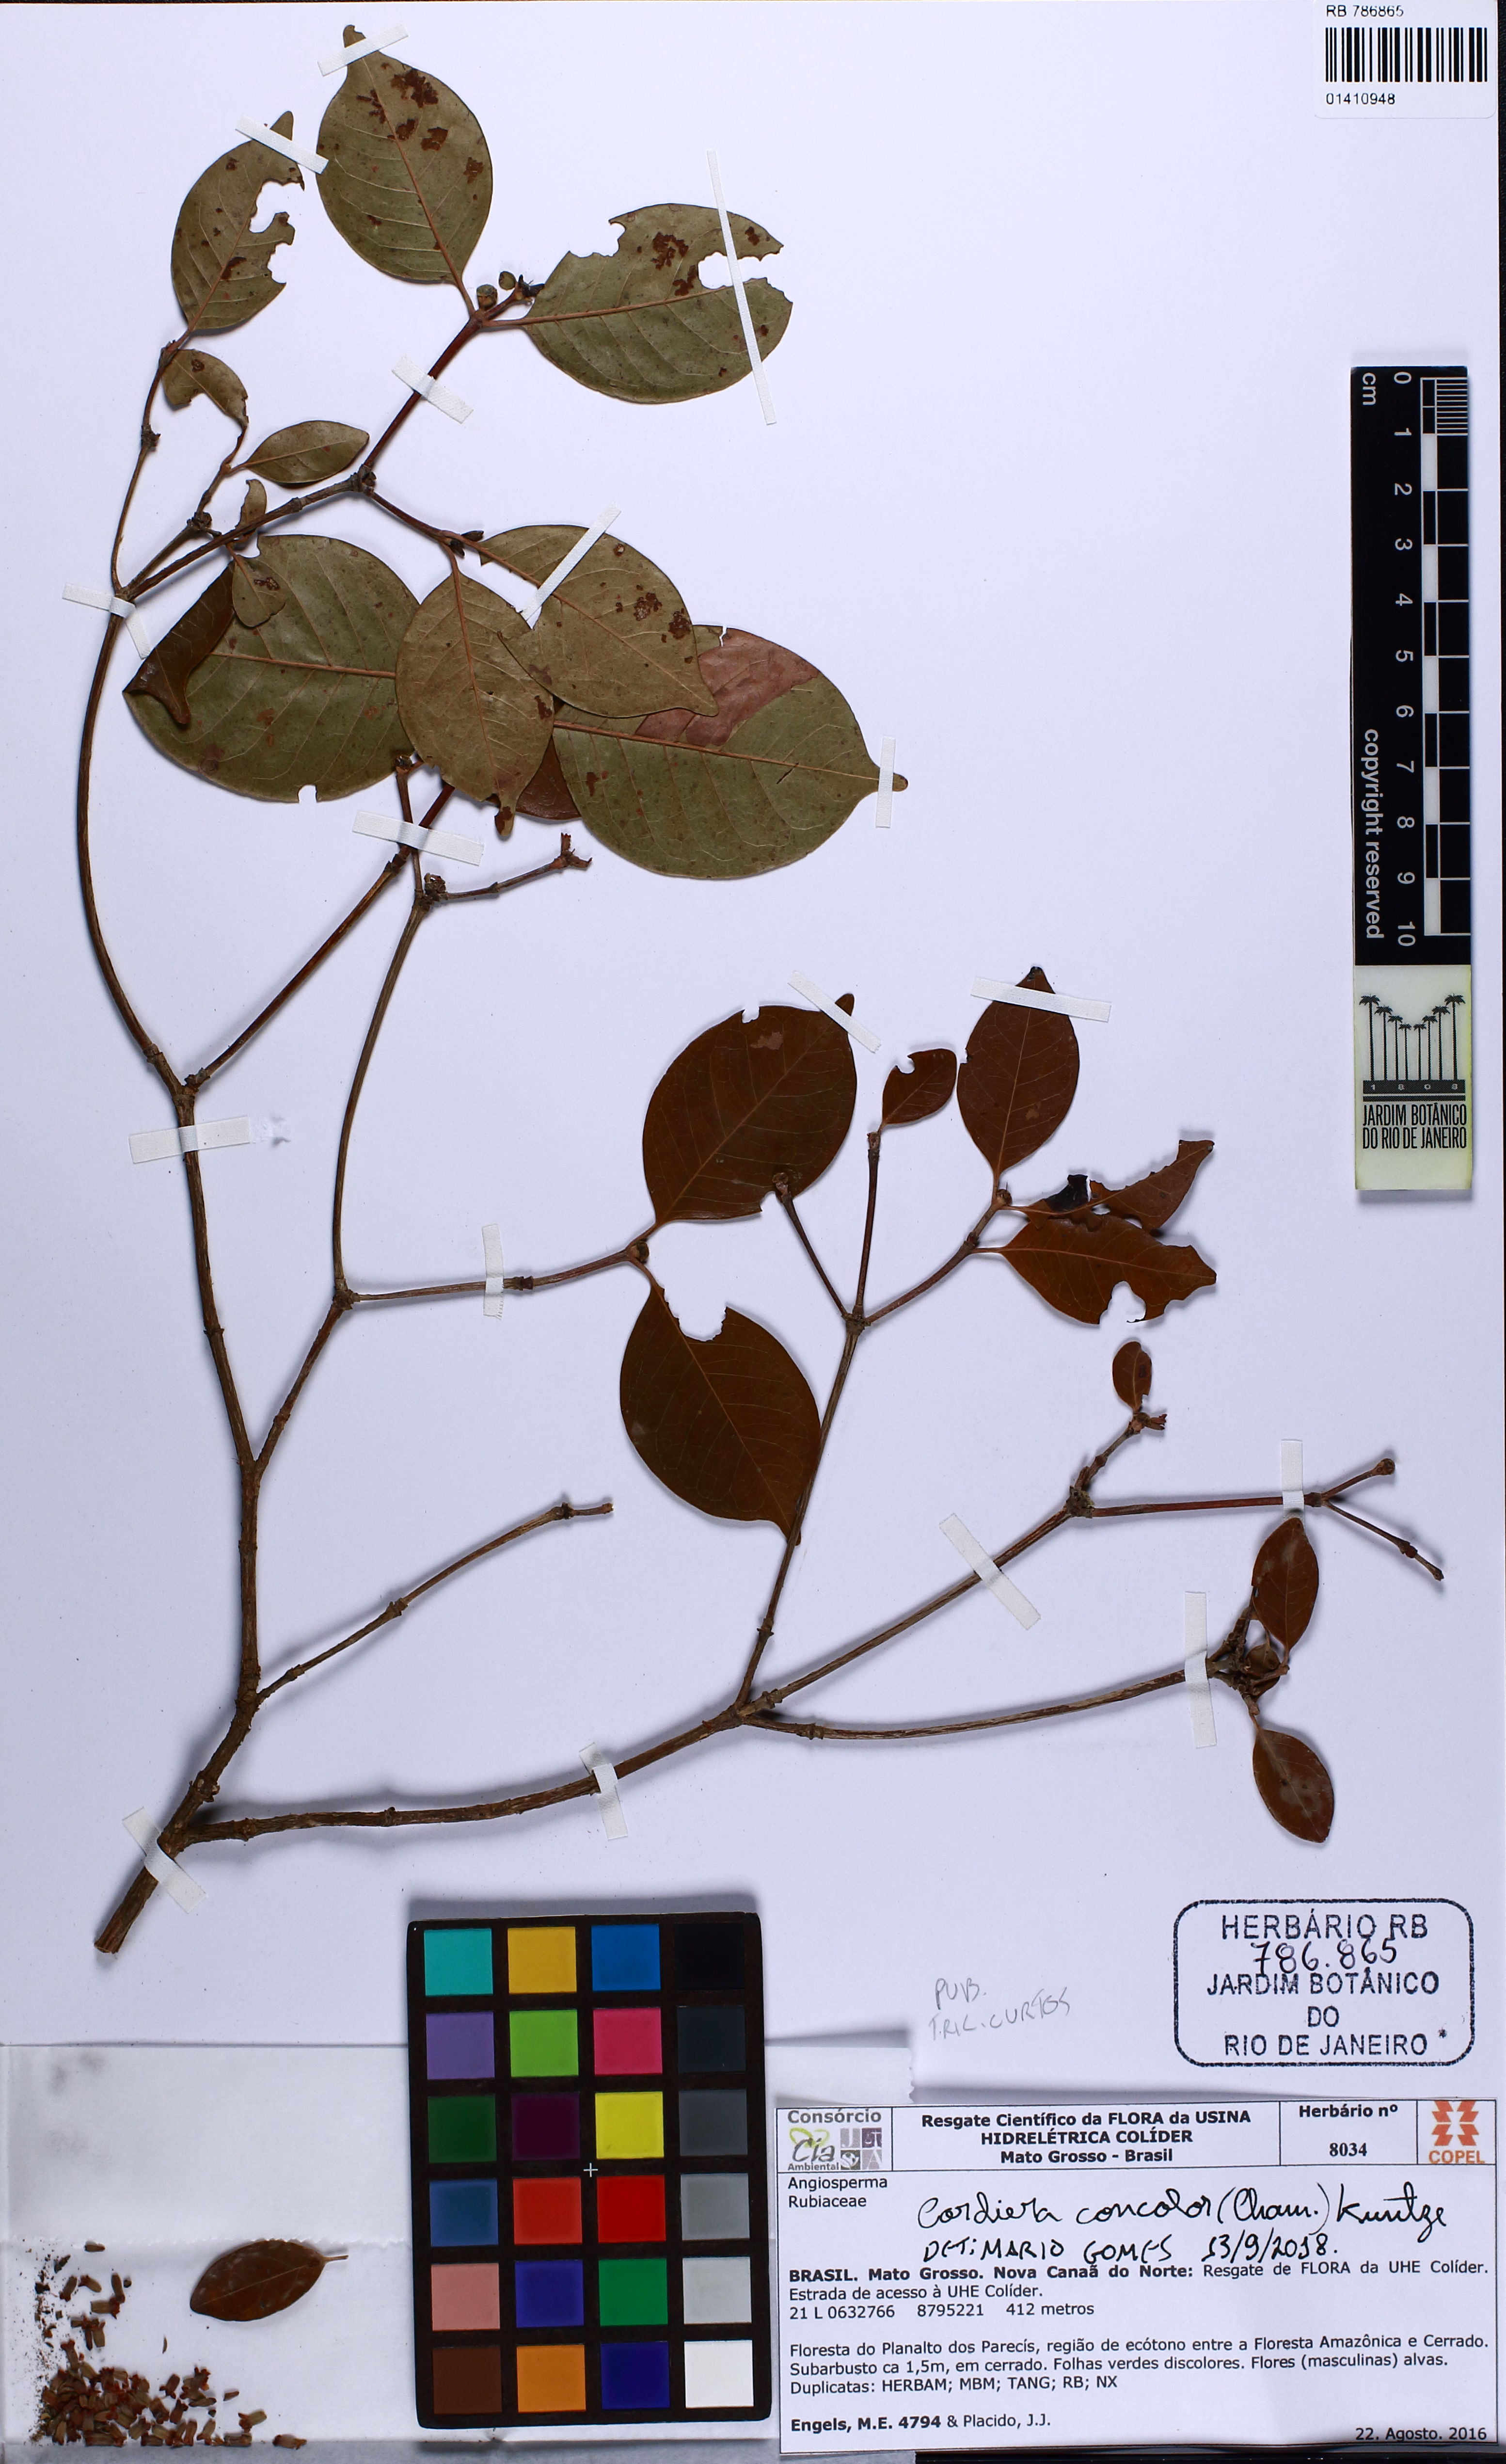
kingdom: Plantae
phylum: Tracheophyta
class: Magnoliopsida
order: Gentianales
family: Rubiaceae
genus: Cordiera
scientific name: Cordiera myrciifolia
